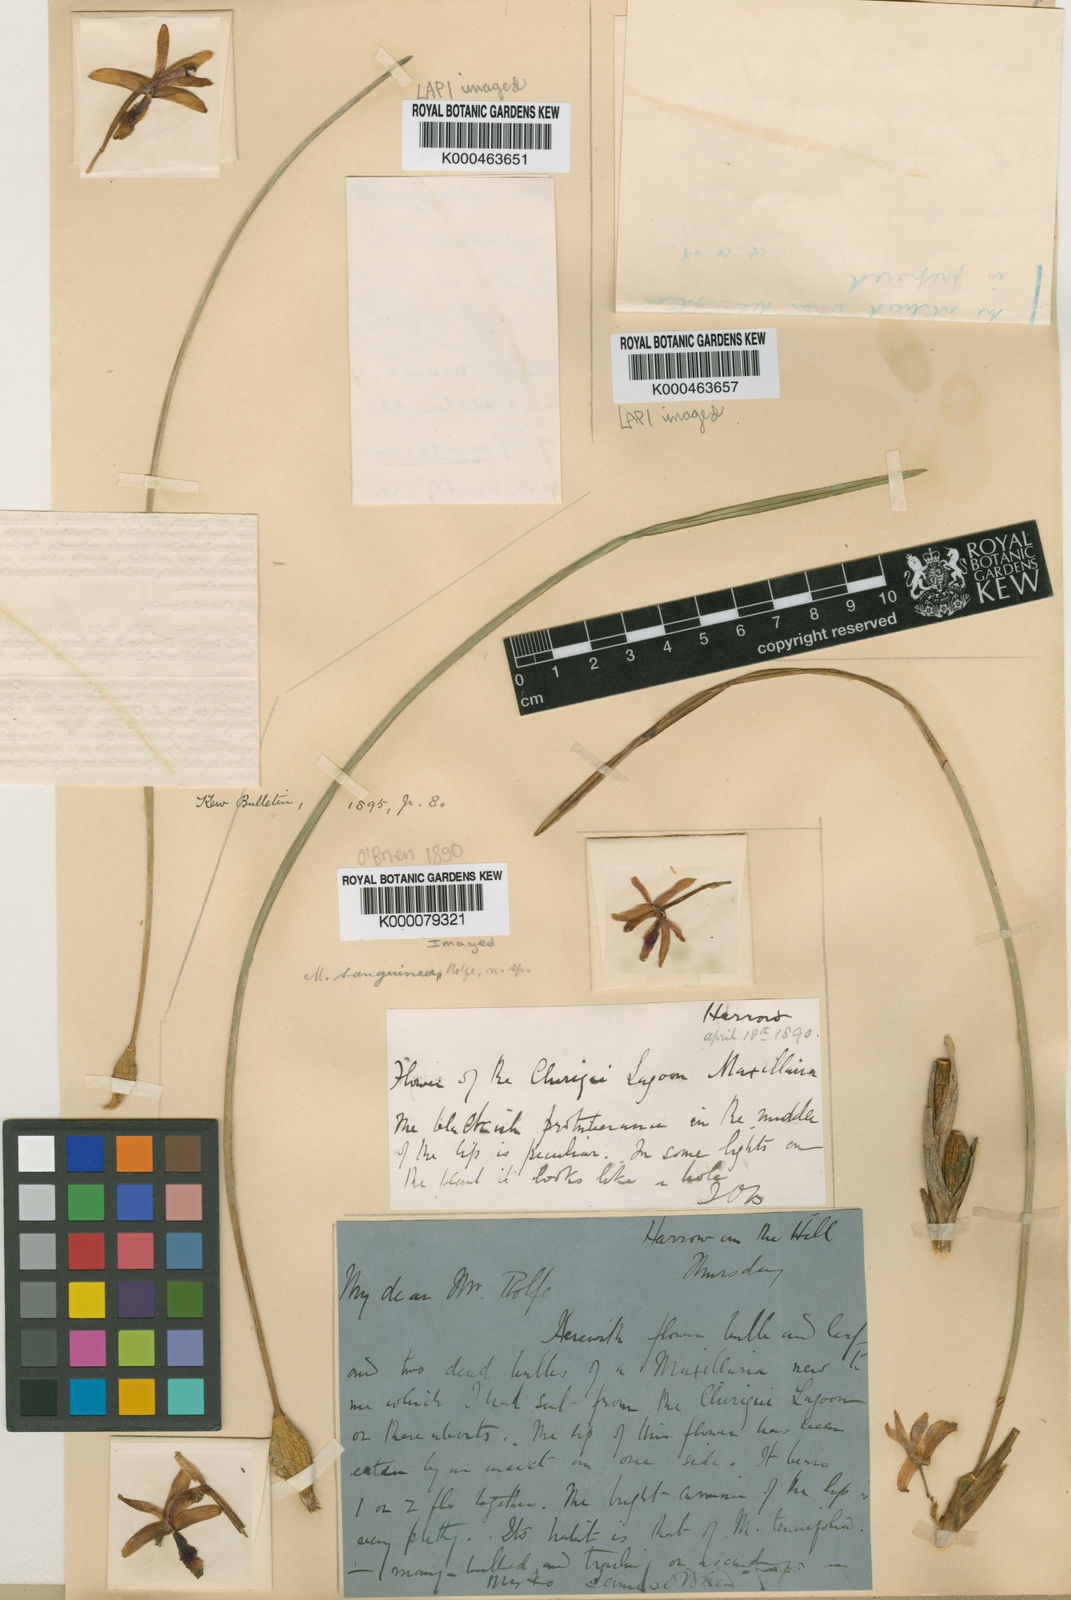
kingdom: Plantae
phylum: Tracheophyta
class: Liliopsida
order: Asparagales
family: Orchidaceae
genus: Maxillaria
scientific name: Maxillaria sanguinea
